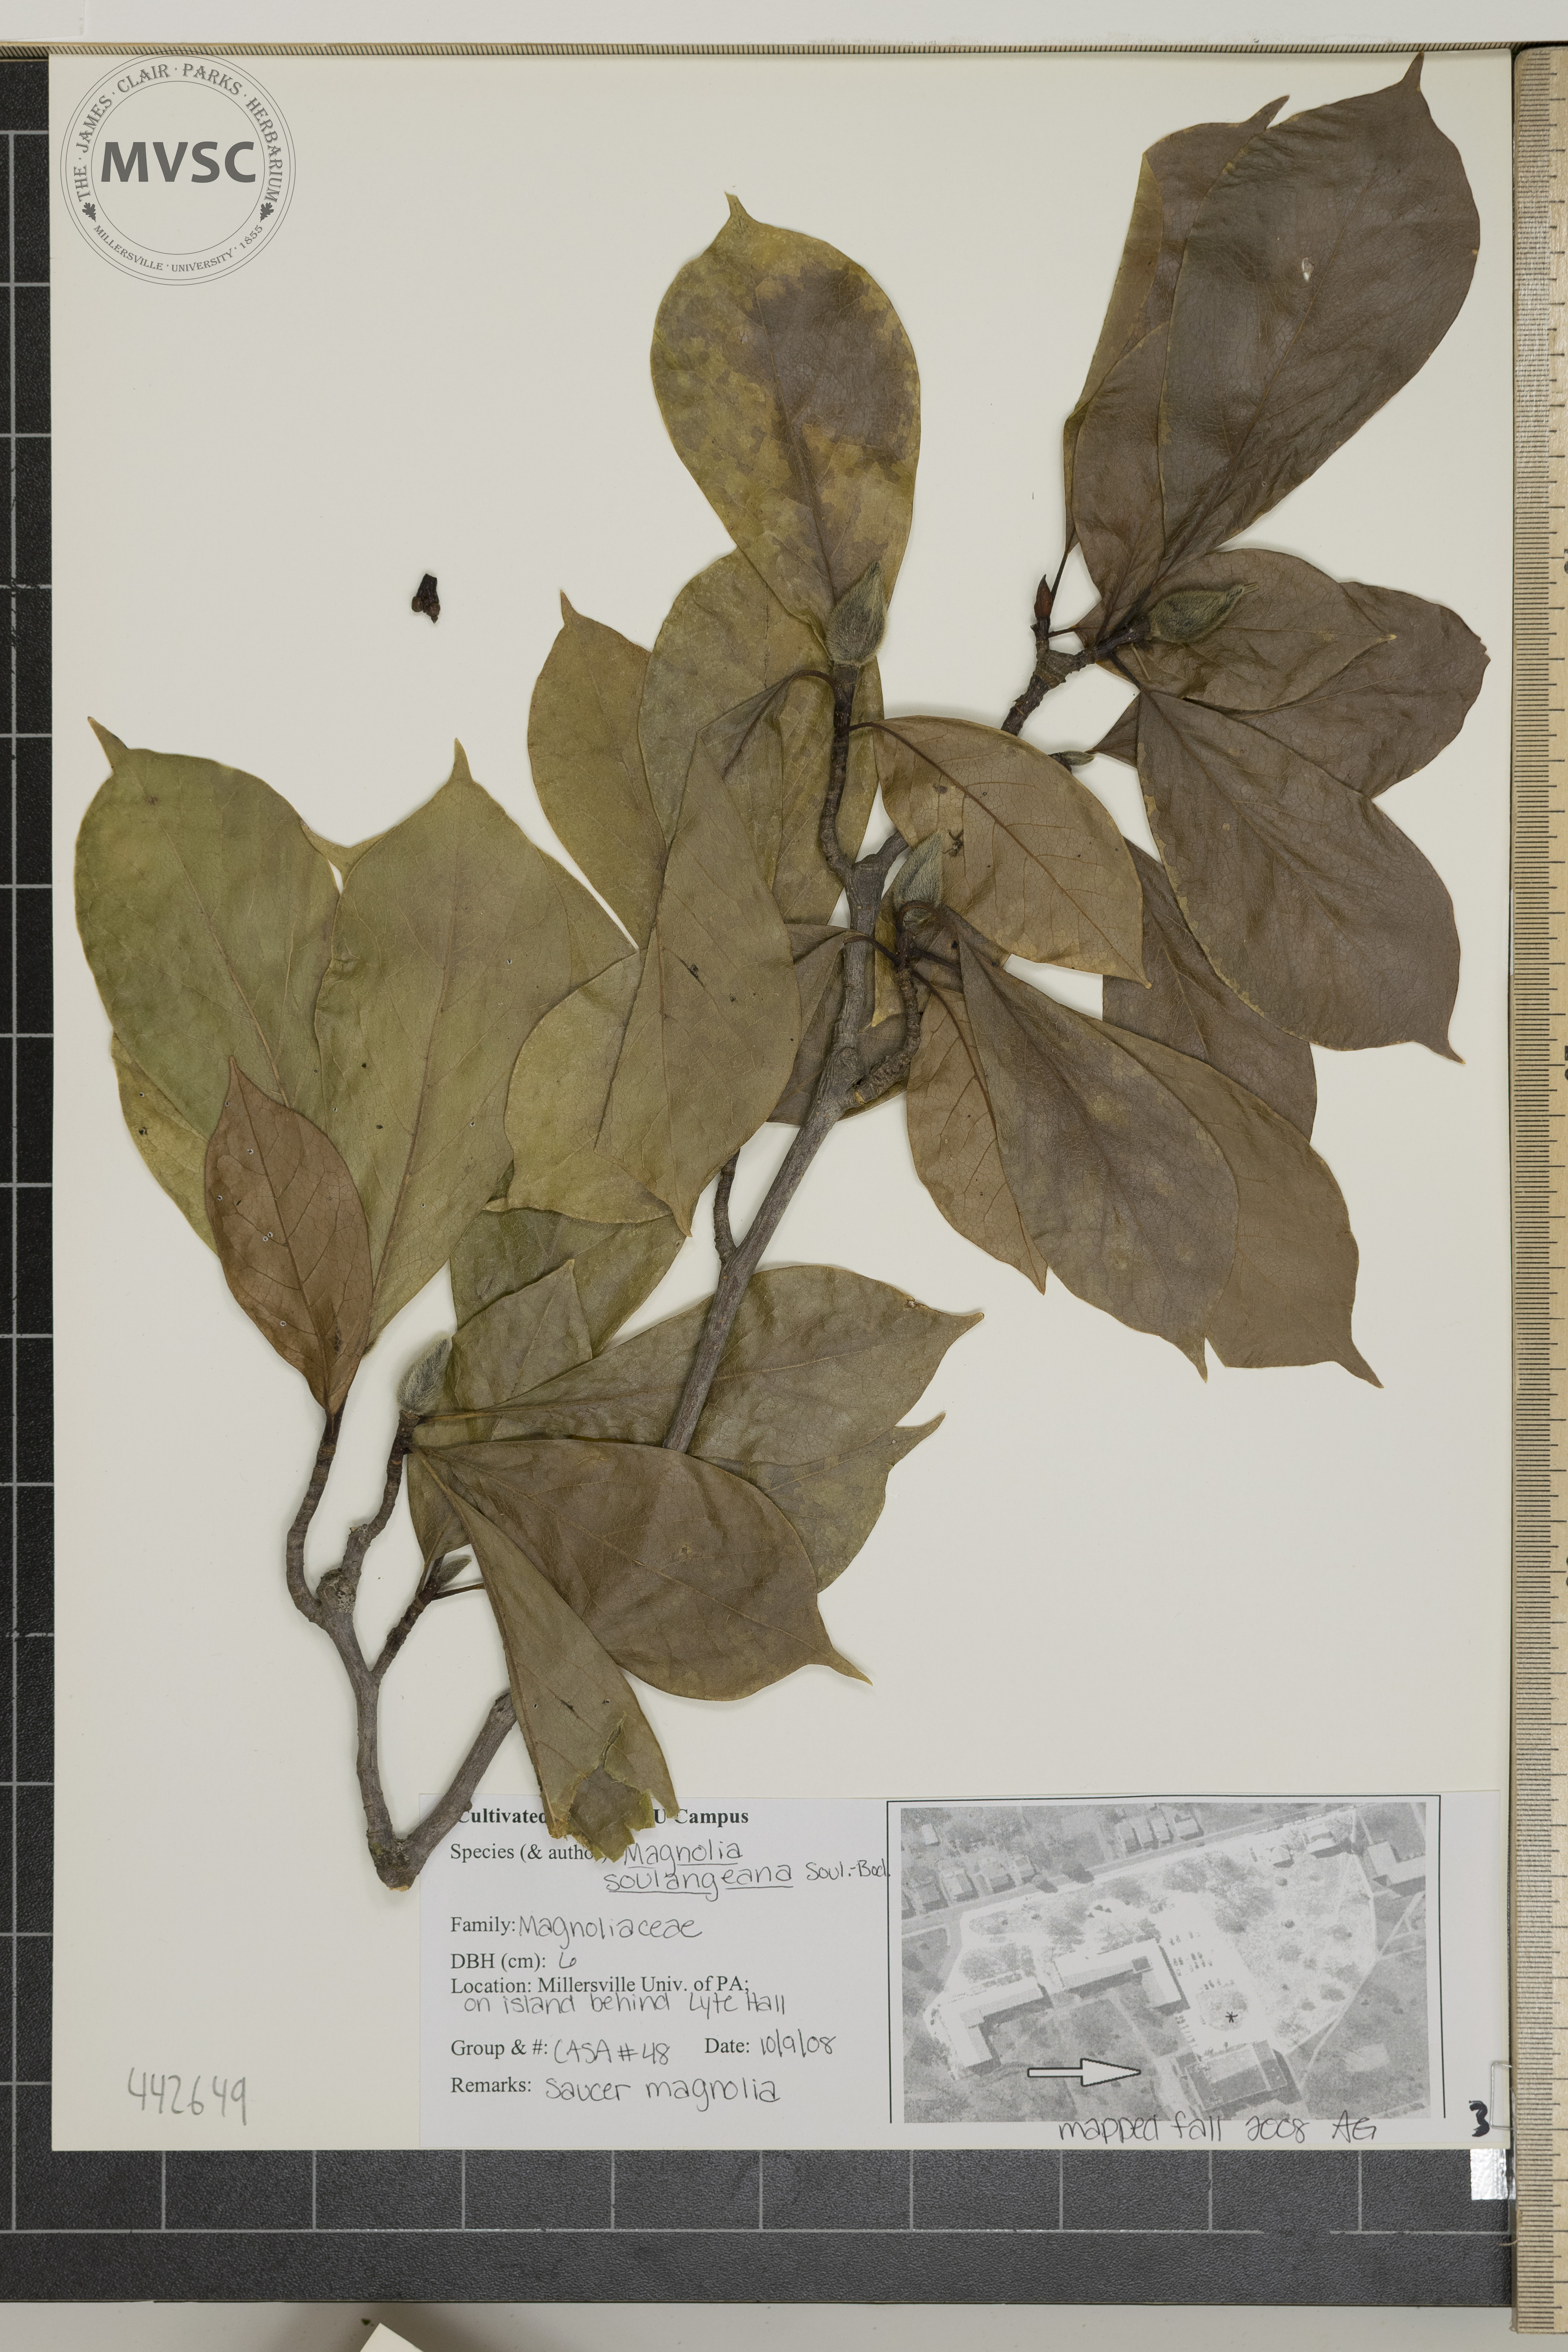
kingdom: Plantae
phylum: Tracheophyta
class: Magnoliopsida
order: Magnoliales
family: Magnoliaceae
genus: Magnolia
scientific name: Magnolia soulangeana
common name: Chinese magnolia
